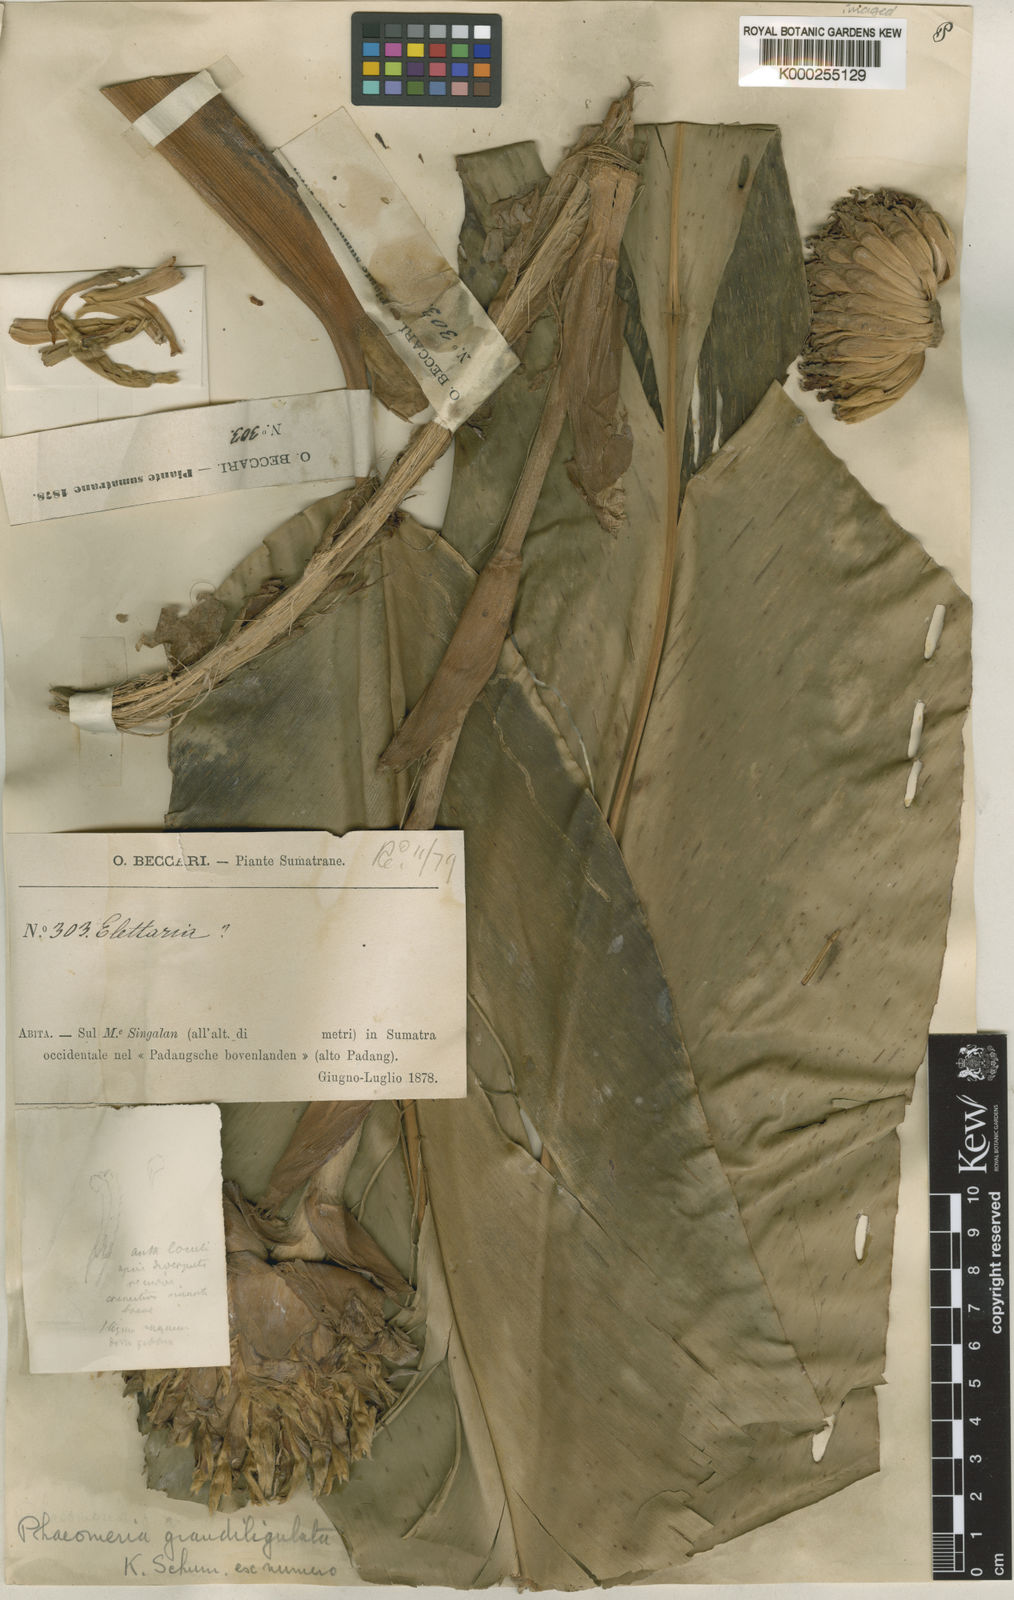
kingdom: Plantae
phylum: Tracheophyta
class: Liliopsida
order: Zingiberales
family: Zingiberaceae
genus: Etlingera
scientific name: Etlingera grandiligulata
